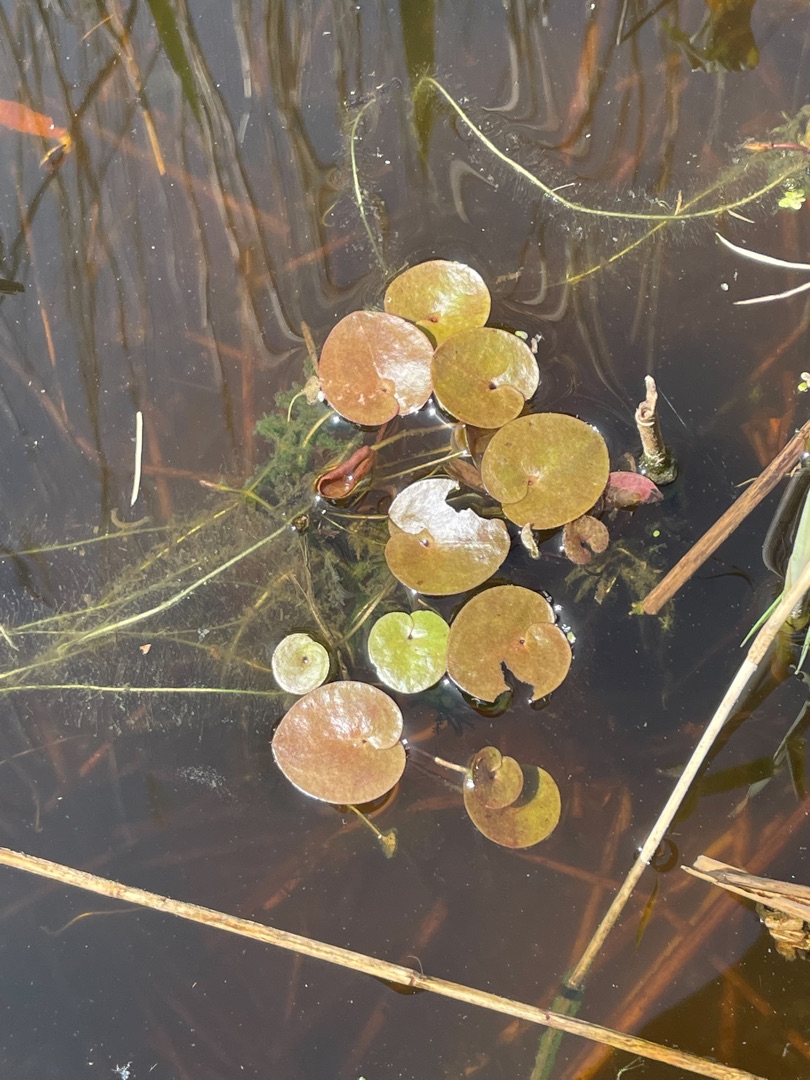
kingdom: Plantae
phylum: Tracheophyta
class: Liliopsida
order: Alismatales
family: Hydrocharitaceae
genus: Hydrocharis
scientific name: Hydrocharis morsus-ranae
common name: Frøbid
